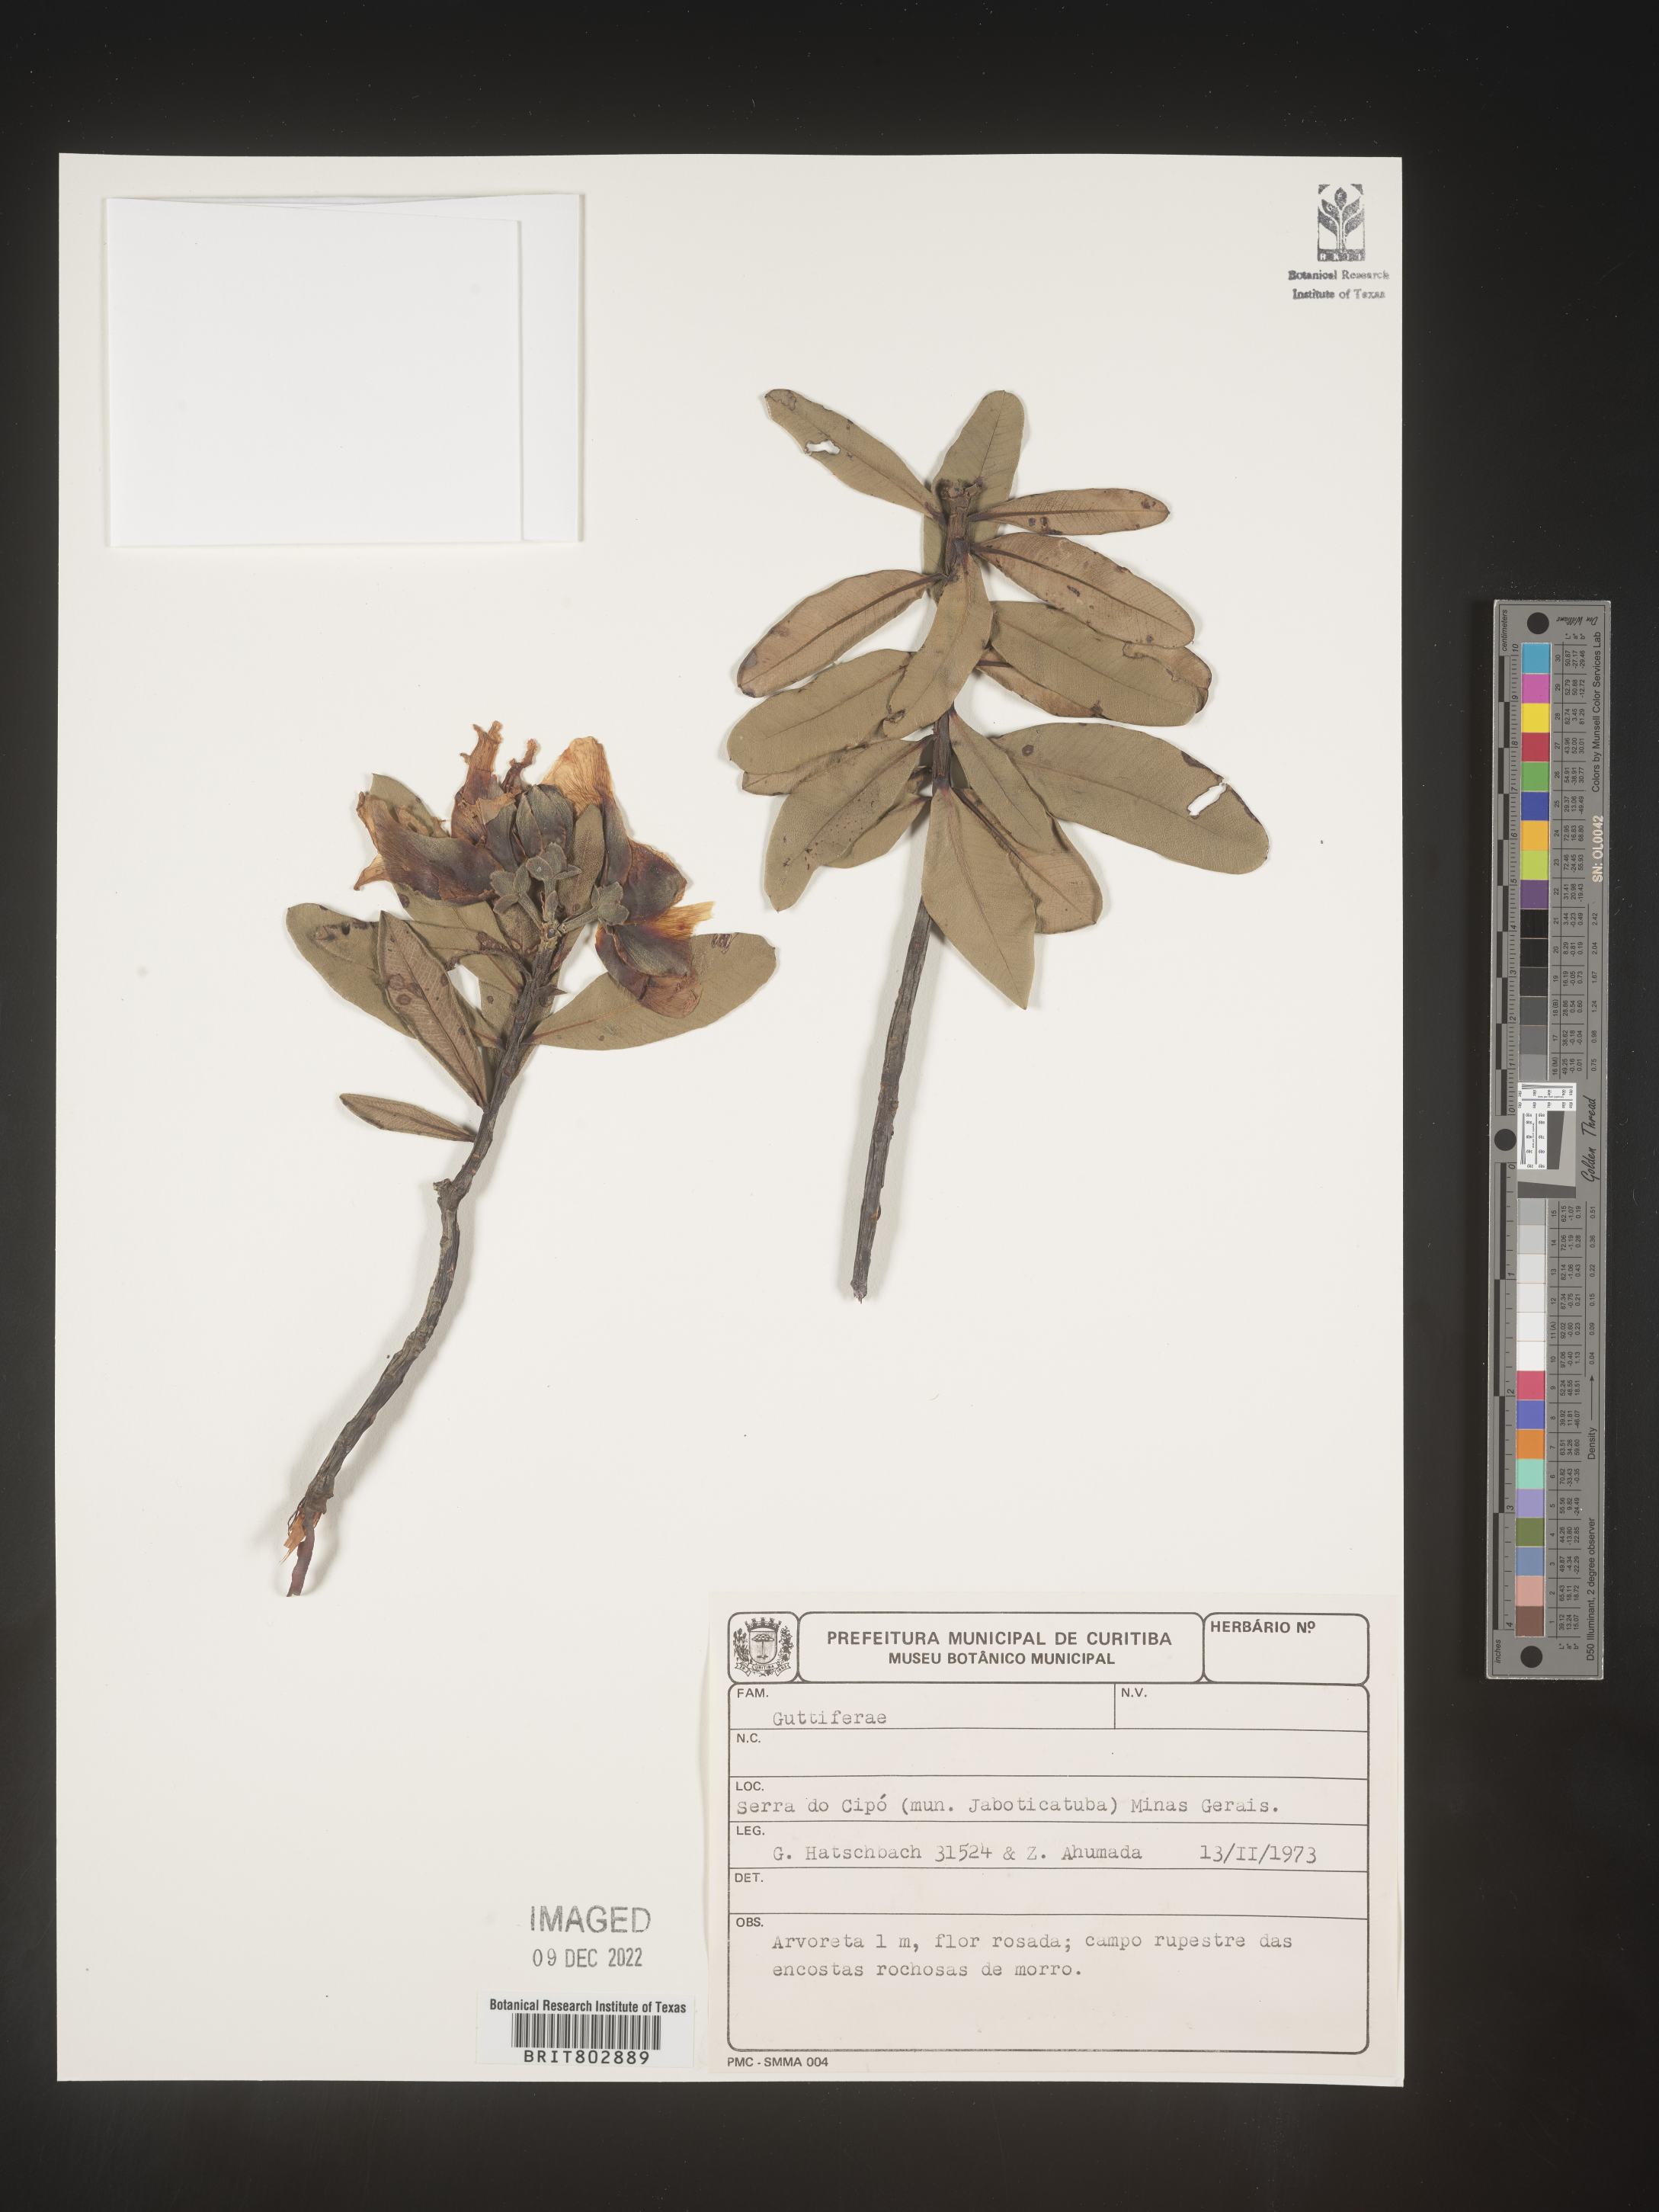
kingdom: Plantae
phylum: Tracheophyta
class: Magnoliopsida
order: Malpighiales
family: Calophyllaceae
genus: Kielmeyera
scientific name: Kielmeyera
